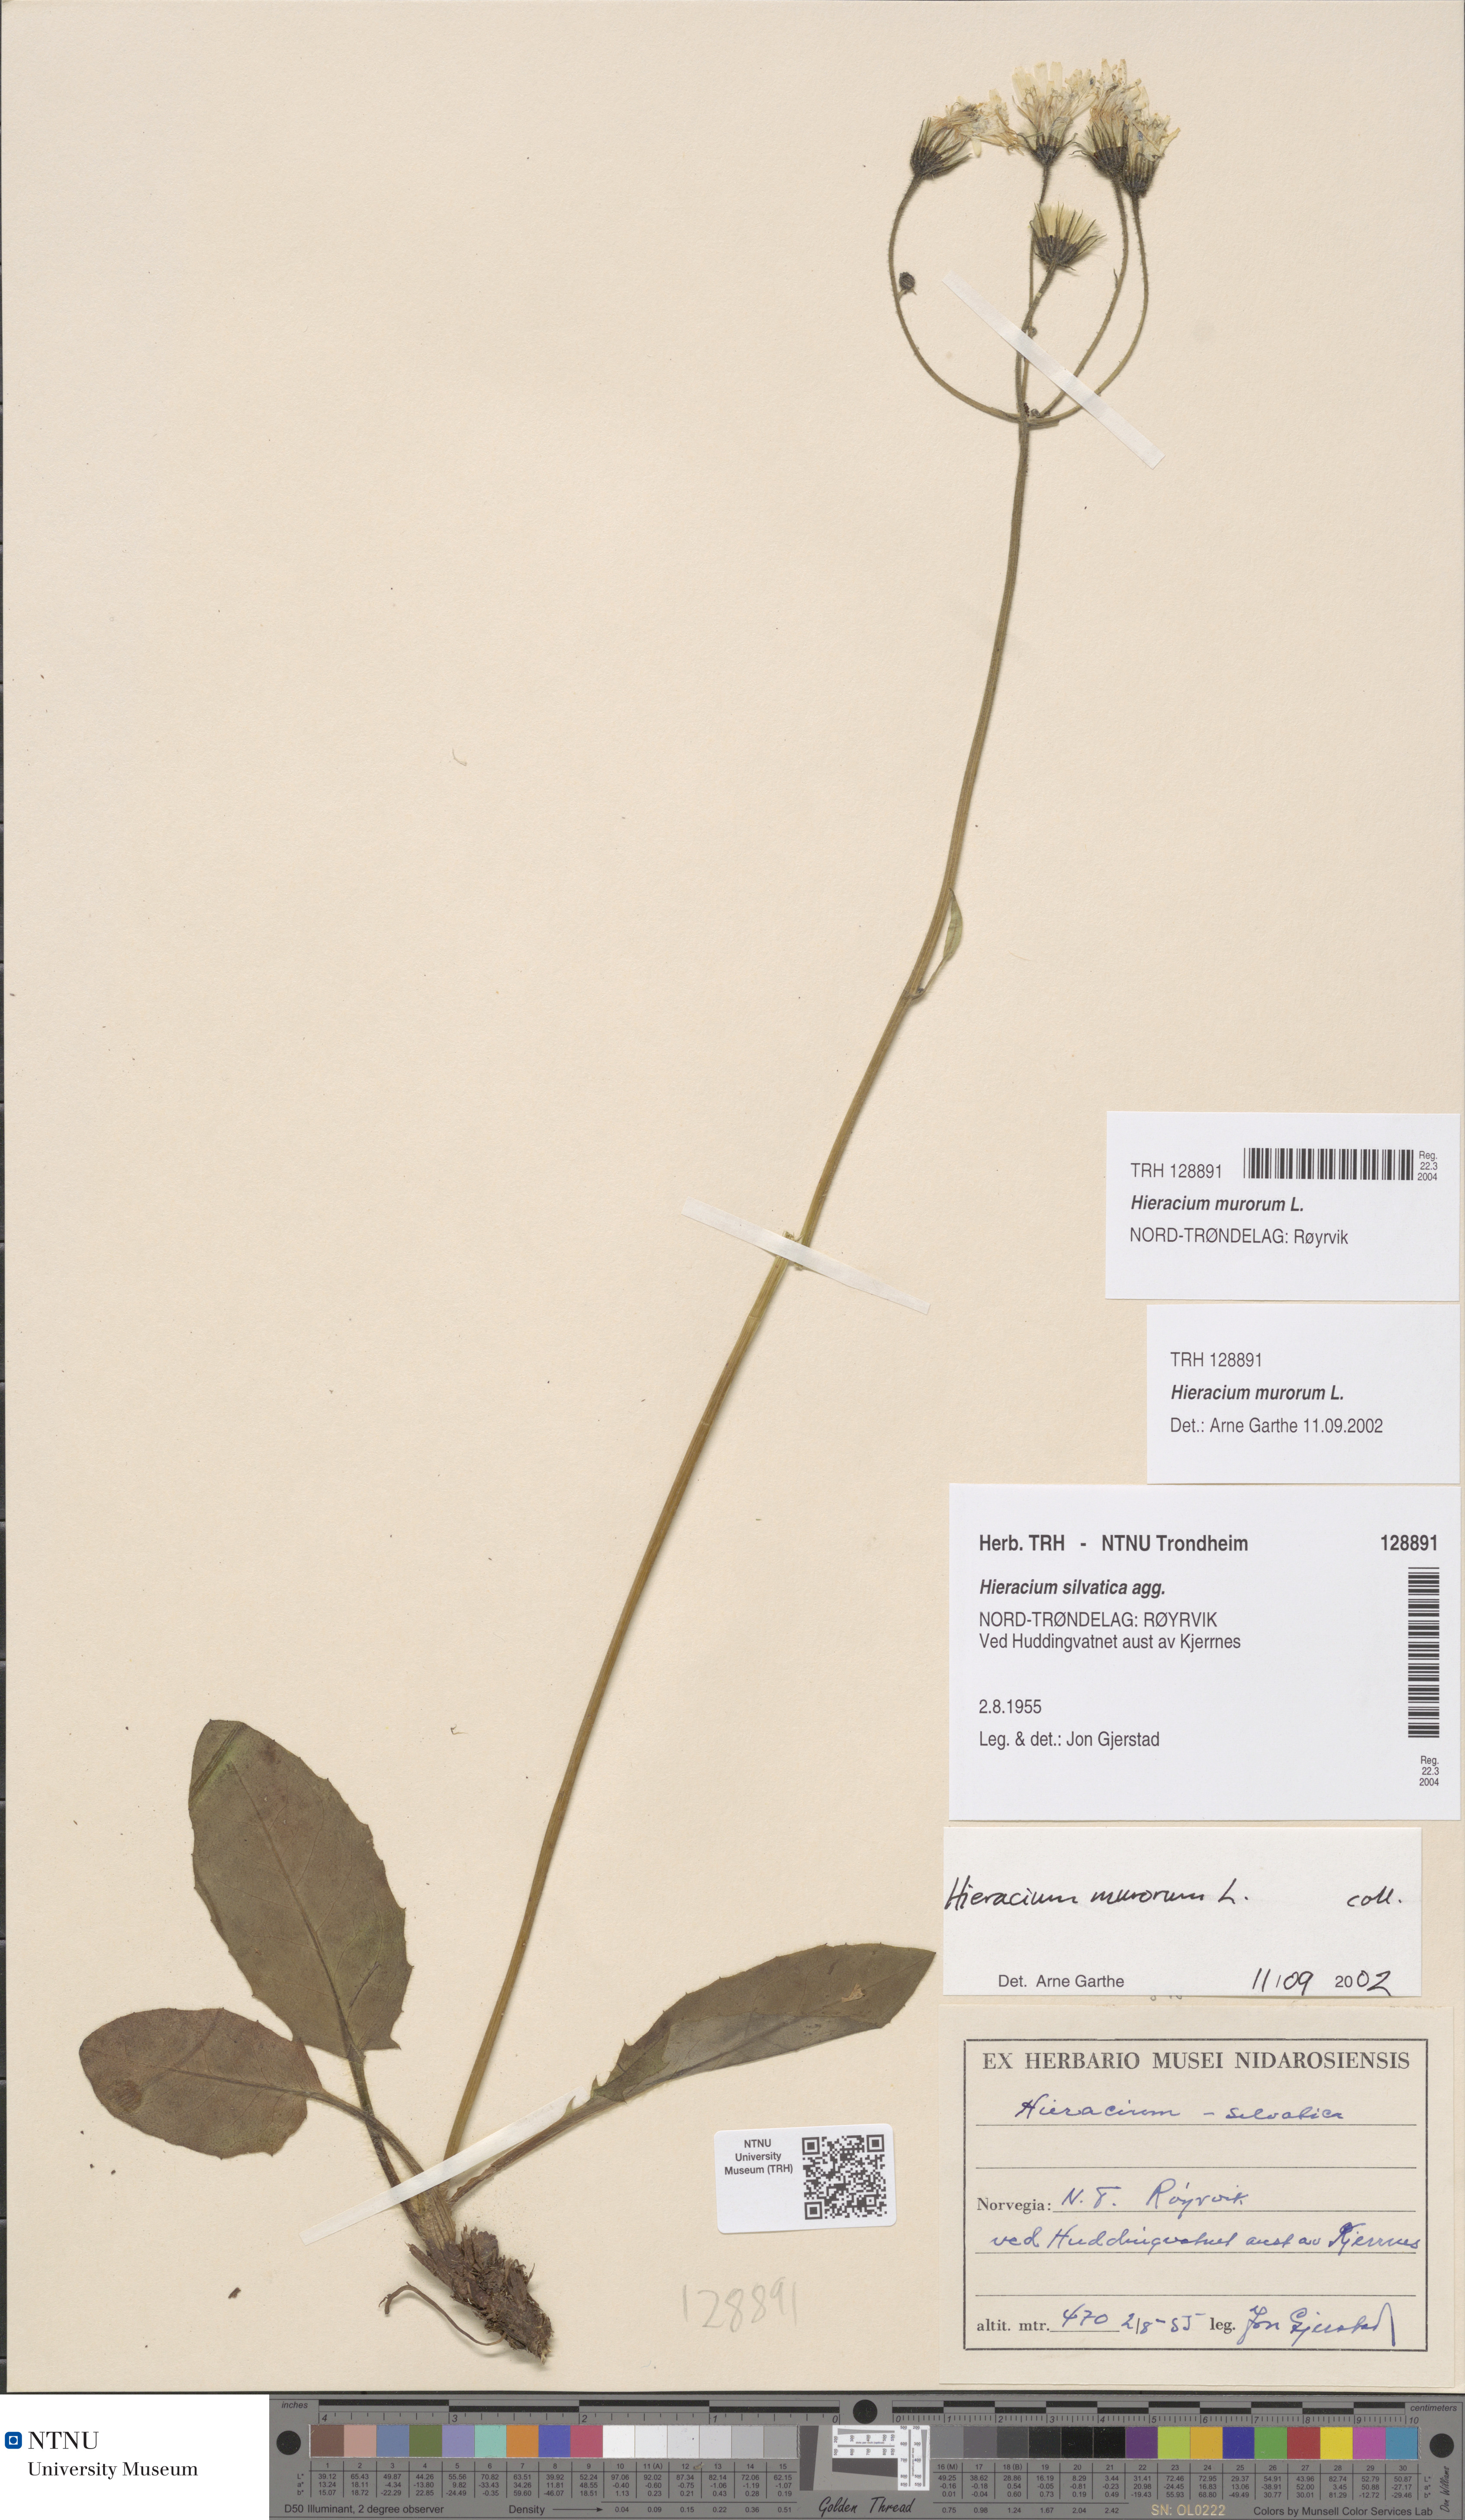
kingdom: Plantae
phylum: Tracheophyta
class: Magnoliopsida
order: Asterales
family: Asteraceae
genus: Hieracium
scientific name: Hieracium murorum
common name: Wall hawkweed
